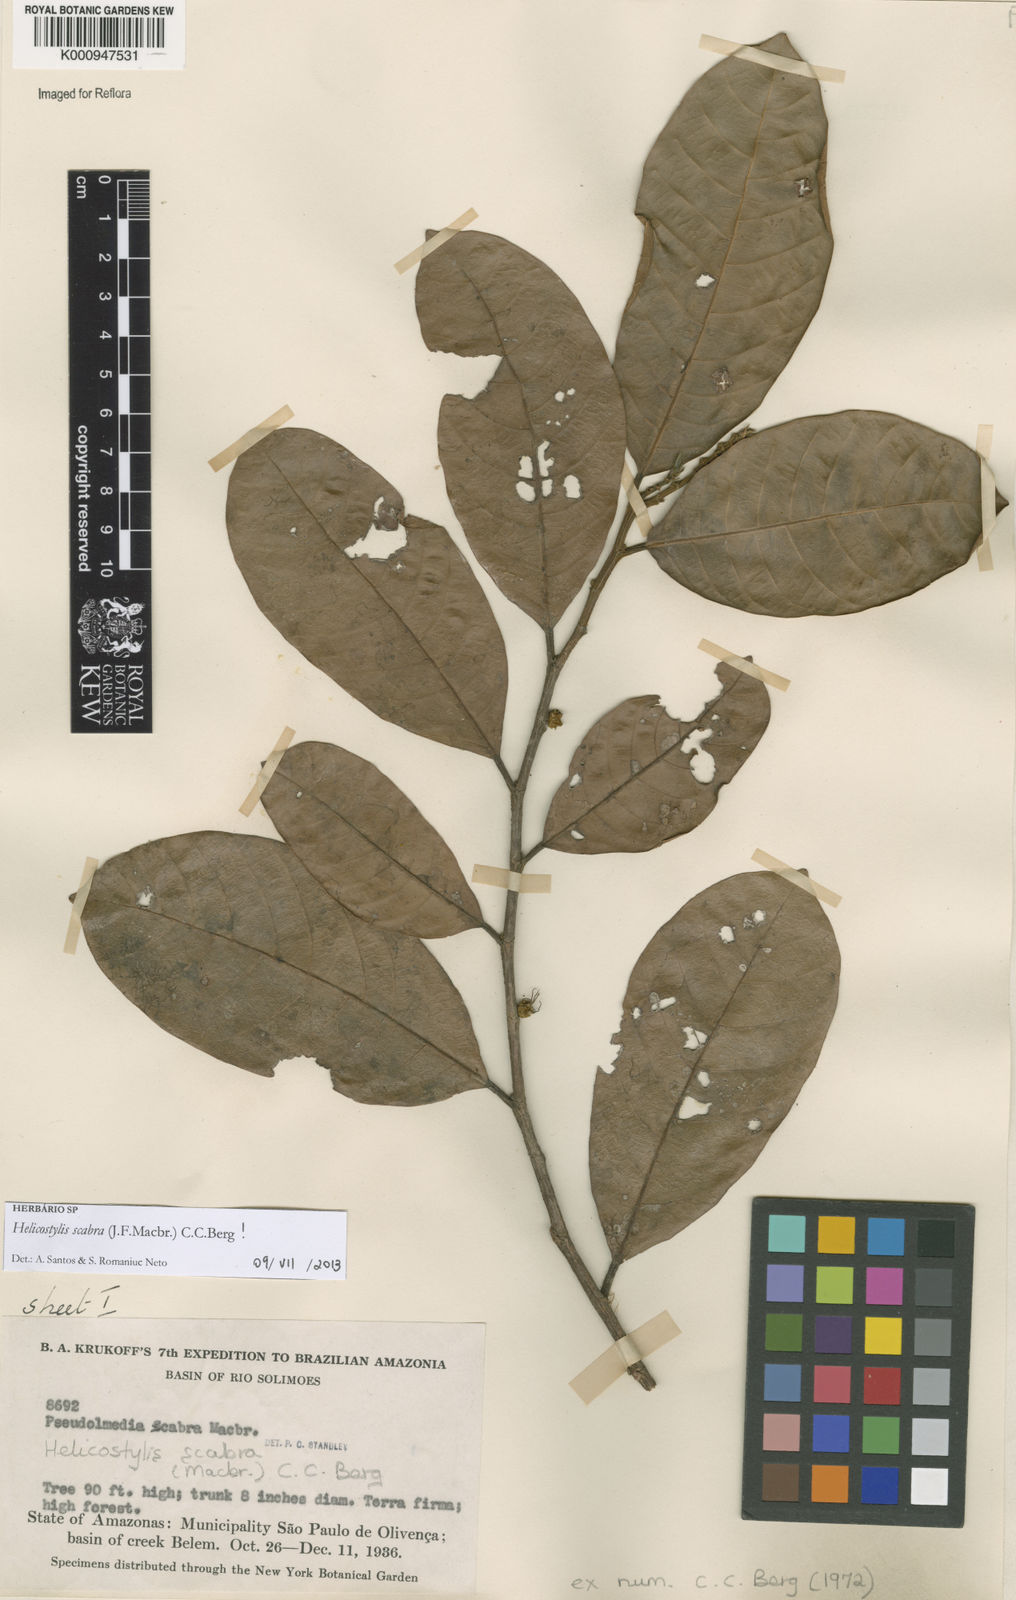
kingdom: Plantae
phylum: Tracheophyta
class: Magnoliopsida
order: Rosales
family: Moraceae
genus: Helicostylis
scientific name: Helicostylis scabra
